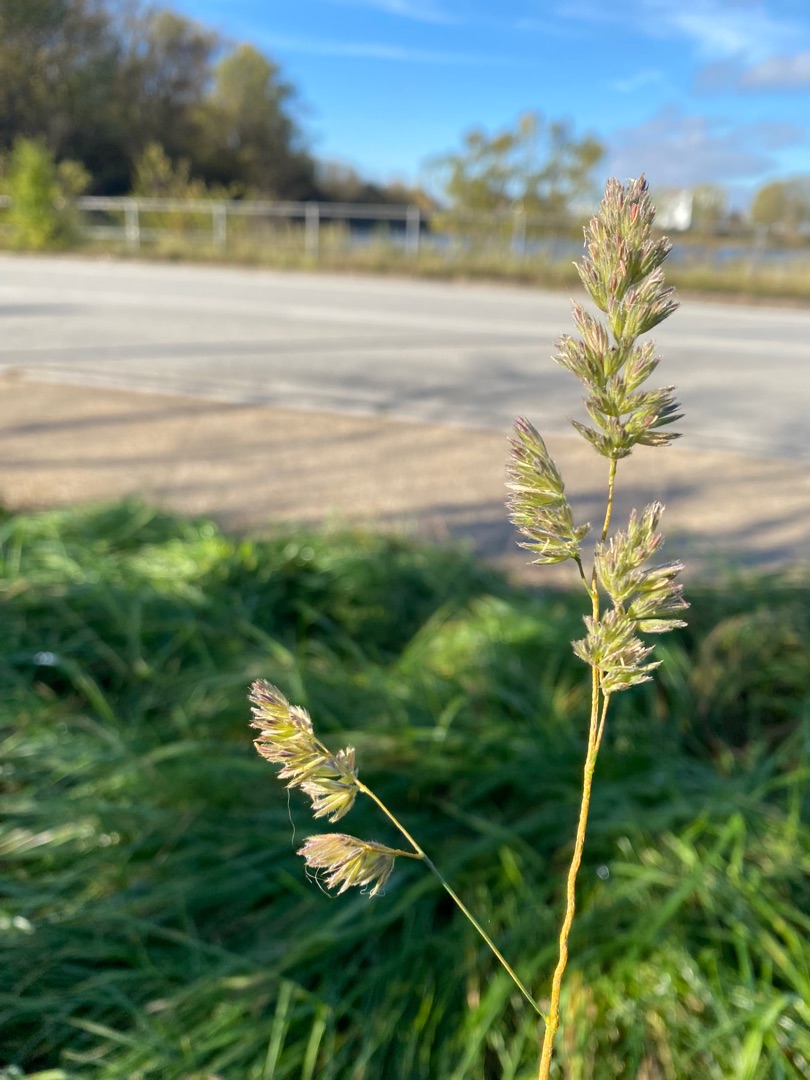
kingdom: Plantae
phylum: Tracheophyta
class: Liliopsida
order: Poales
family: Poaceae
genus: Dactylis
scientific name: Dactylis glomerata
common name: Almindelig hundegræs
